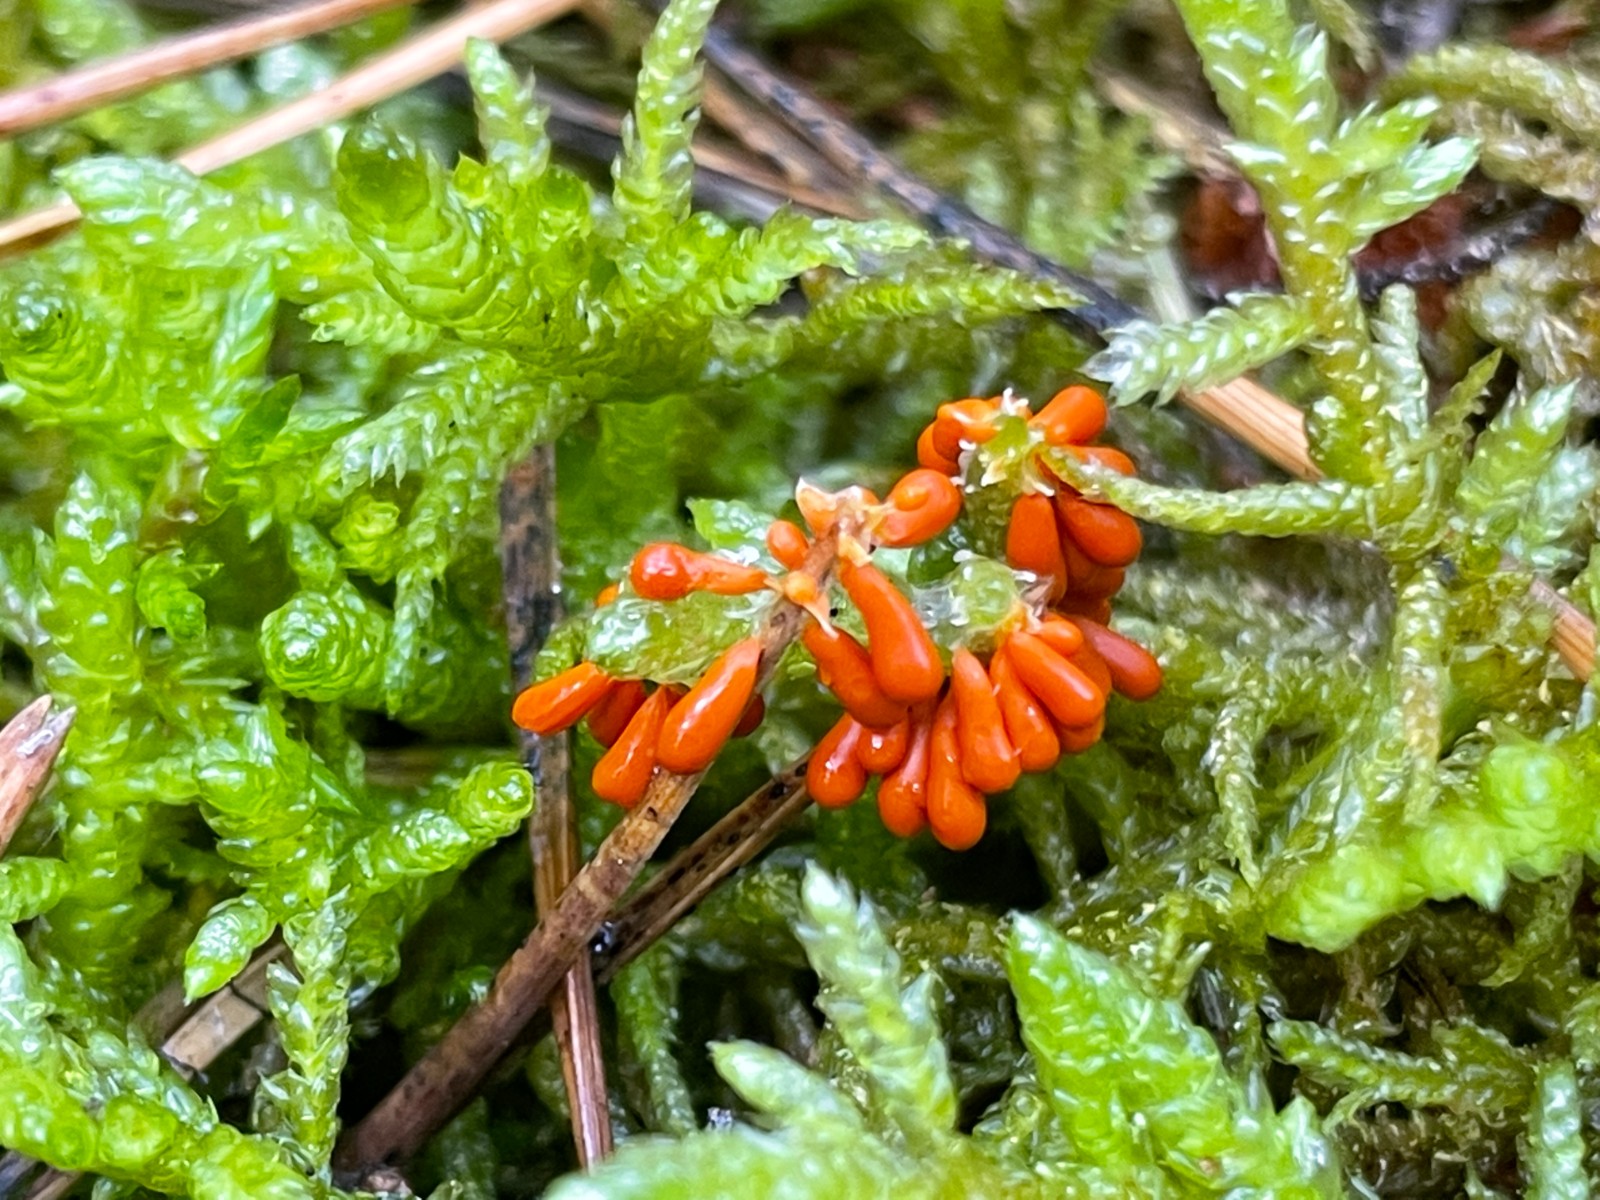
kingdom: Protozoa
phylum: Mycetozoa
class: Myxomycetes
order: Physarales
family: Physaraceae
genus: Leocarpus
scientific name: Leocarpus fragilis
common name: poleret glatfrø
